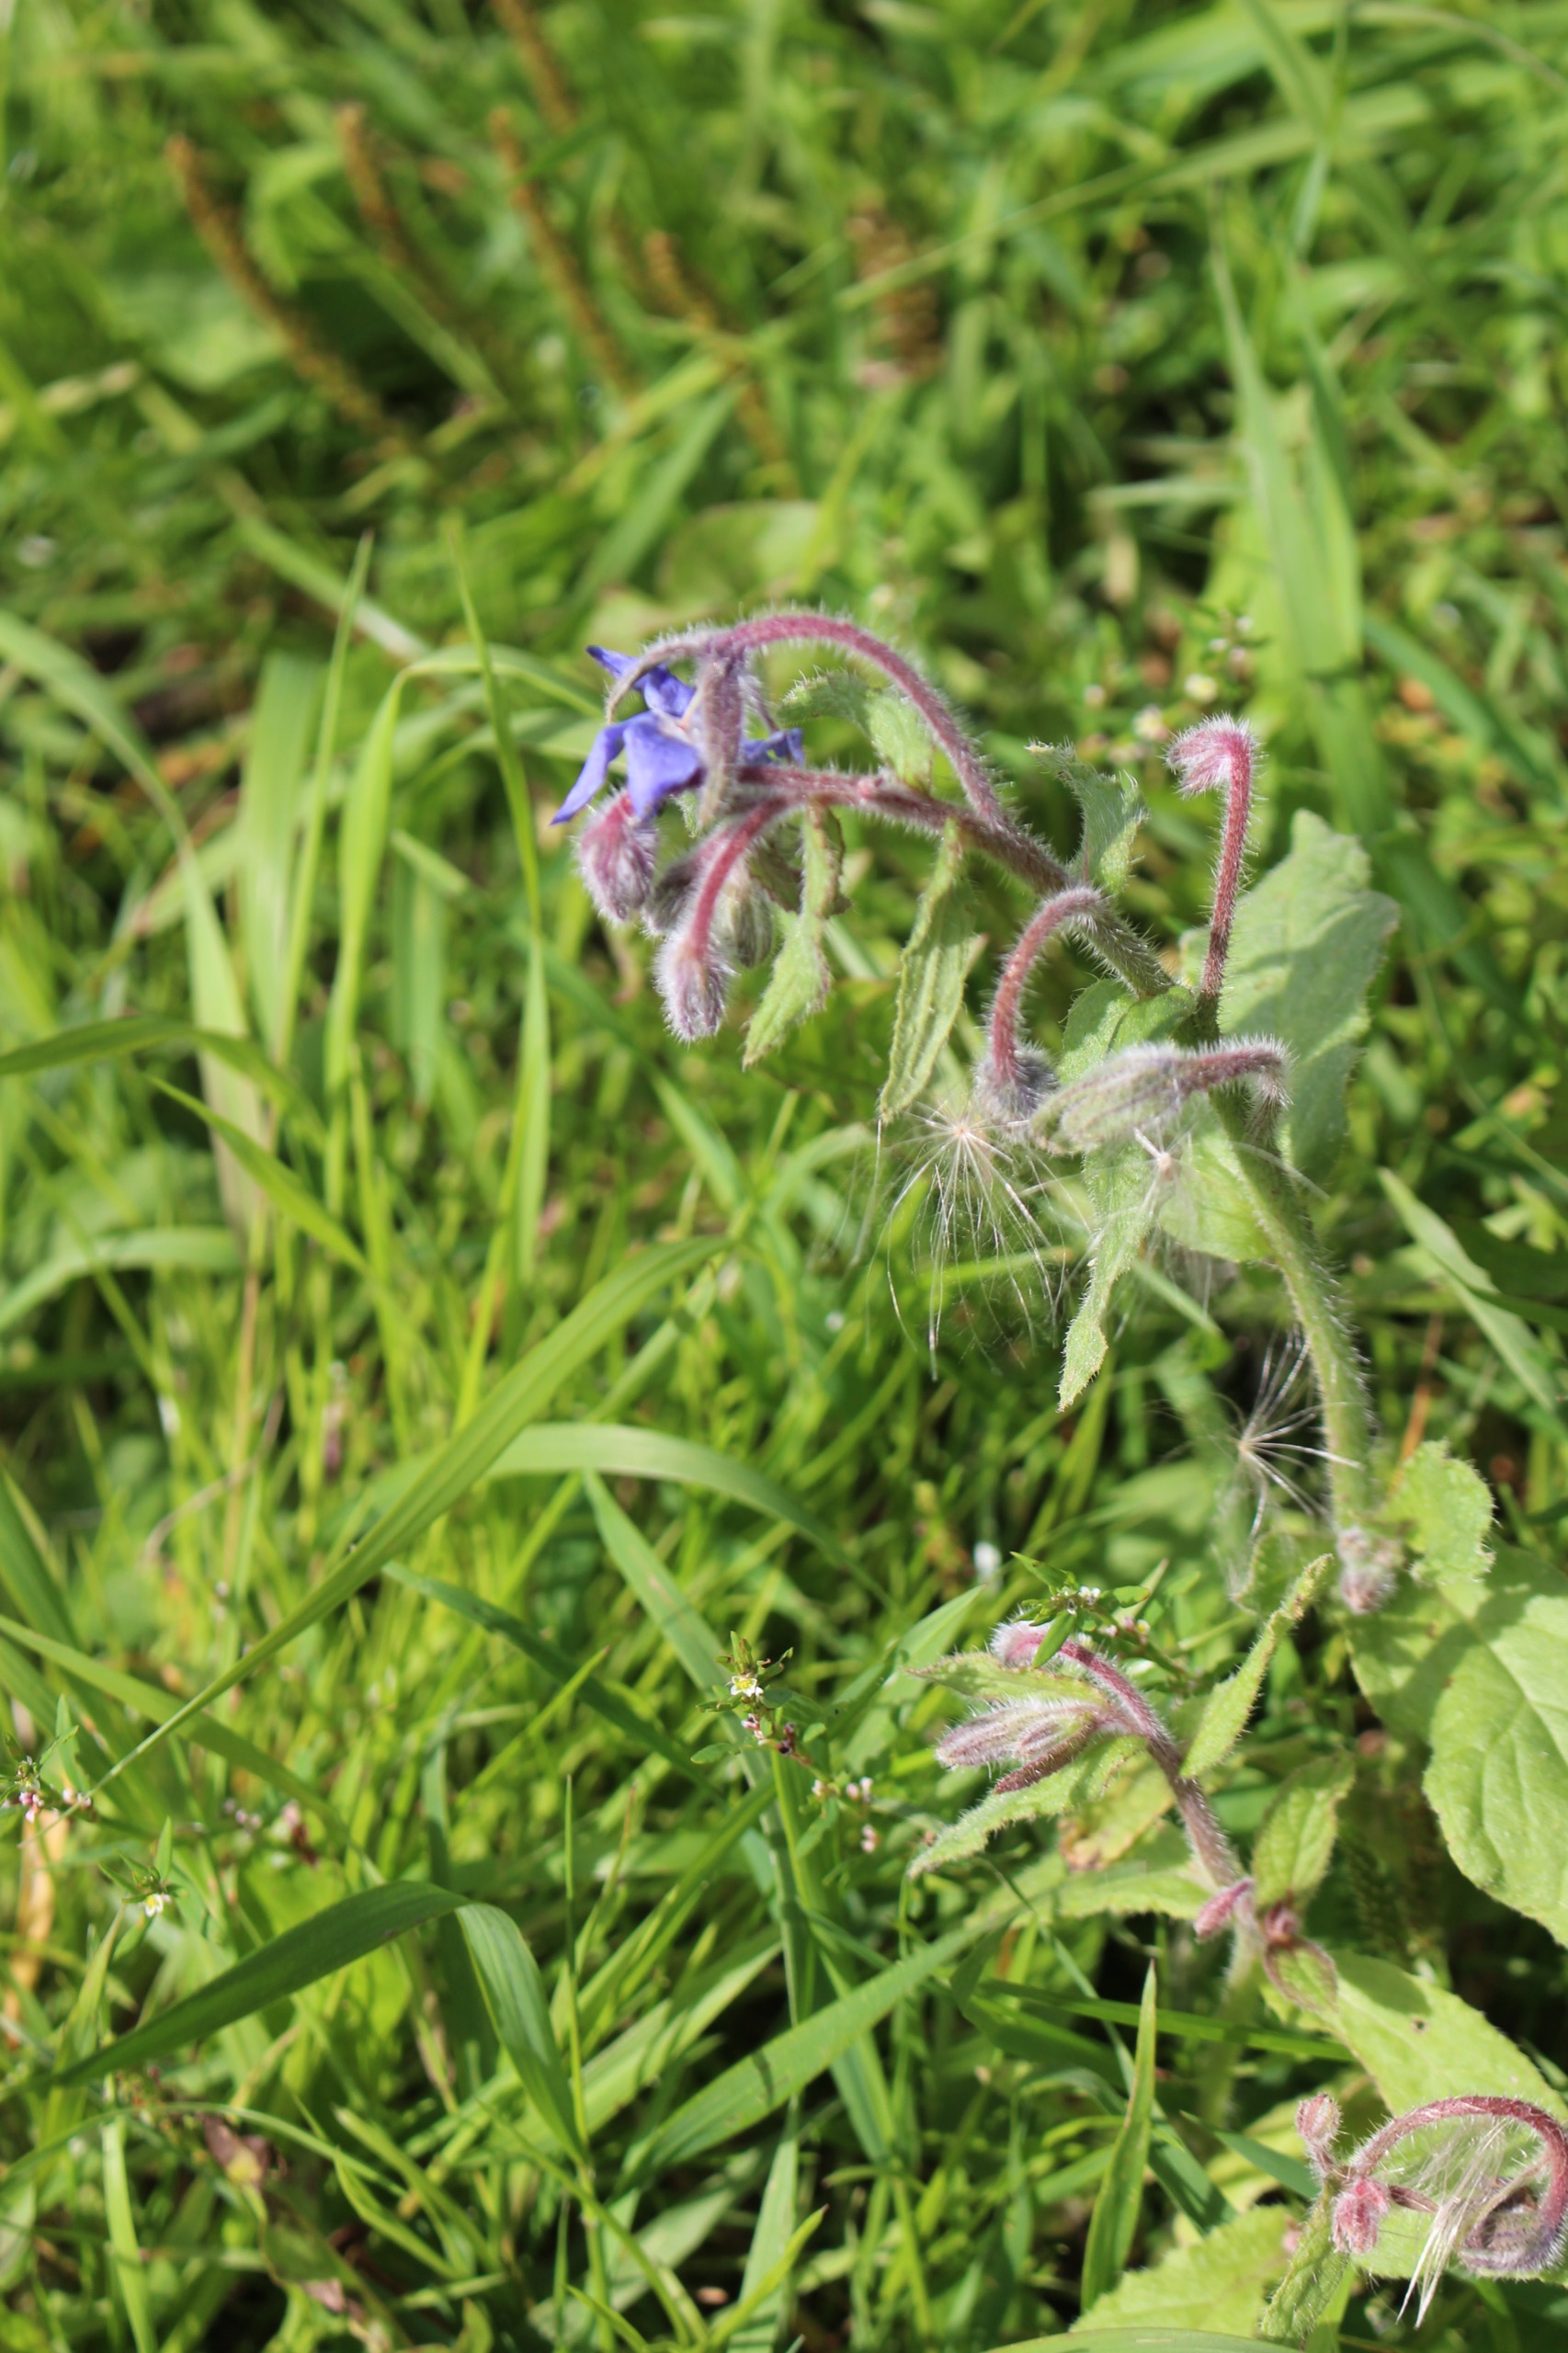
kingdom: Plantae
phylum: Tracheophyta
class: Magnoliopsida
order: Boraginales
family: Boraginaceae
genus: Borago
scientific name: Borago officinalis
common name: Hjulkrone
